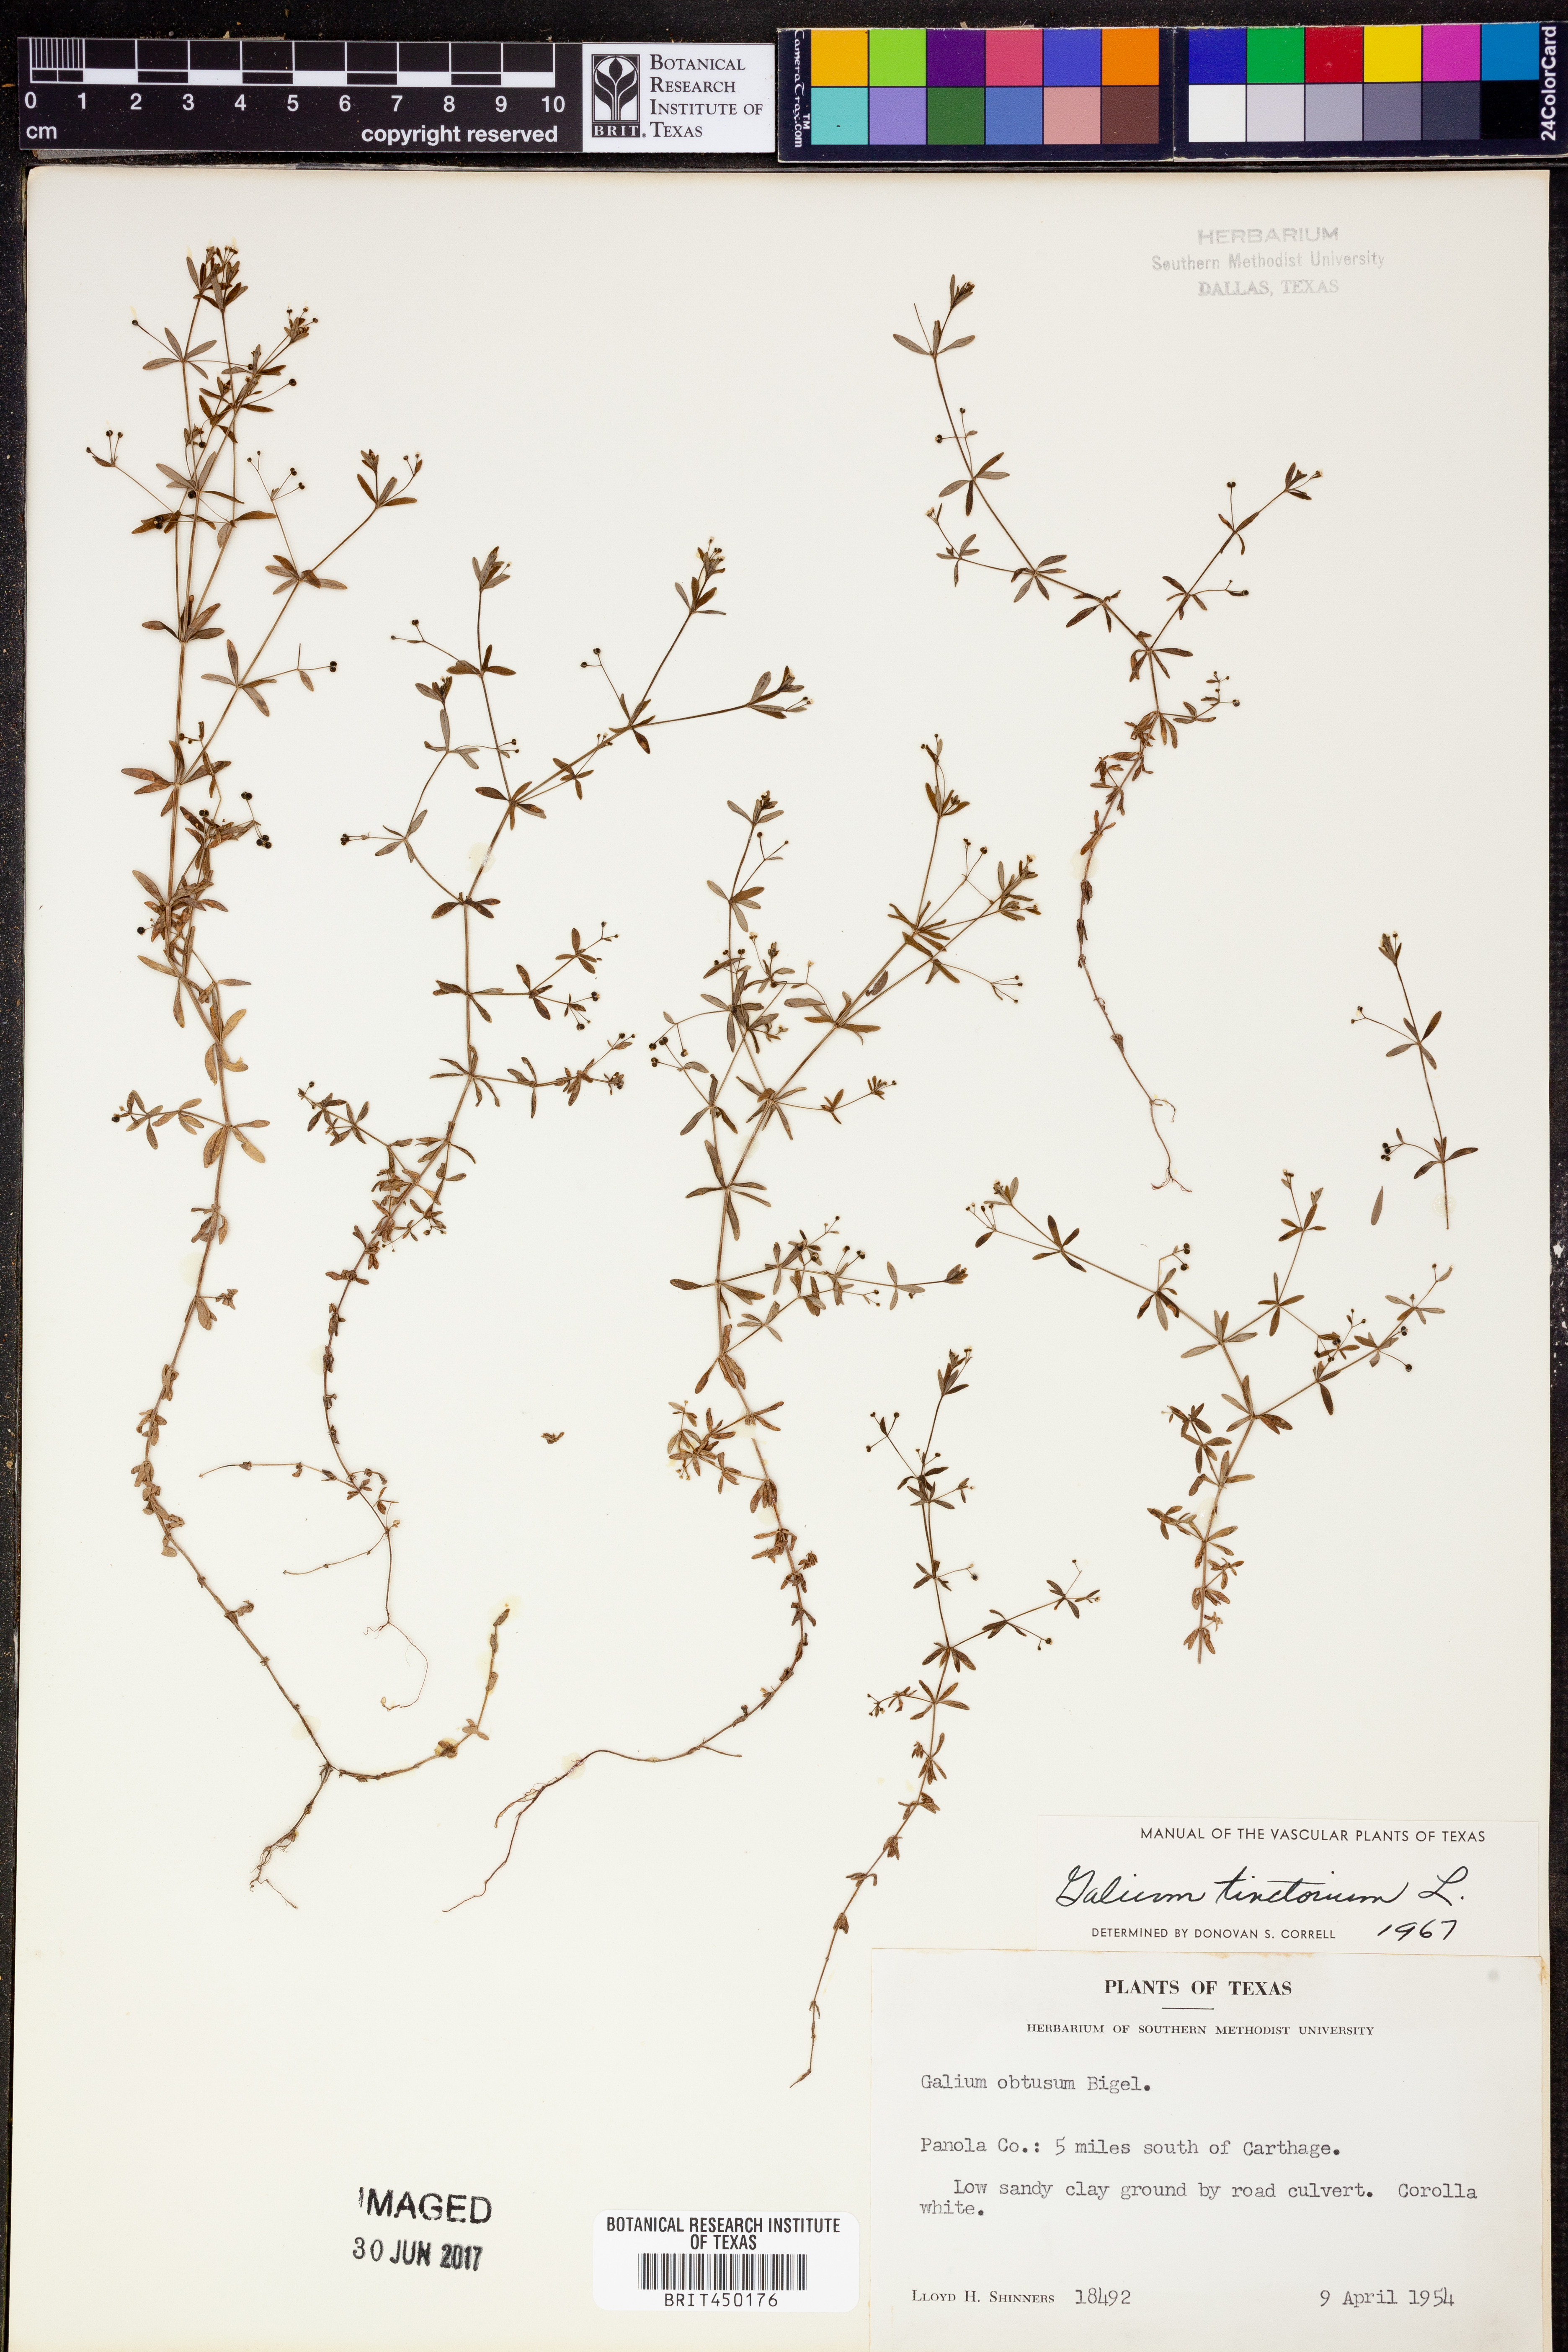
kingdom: Plantae
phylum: Tracheophyta
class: Magnoliopsida
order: Gentianales
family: Rubiaceae
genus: Asperula
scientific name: Asperula tinctoria
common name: Dyer's woodruff
